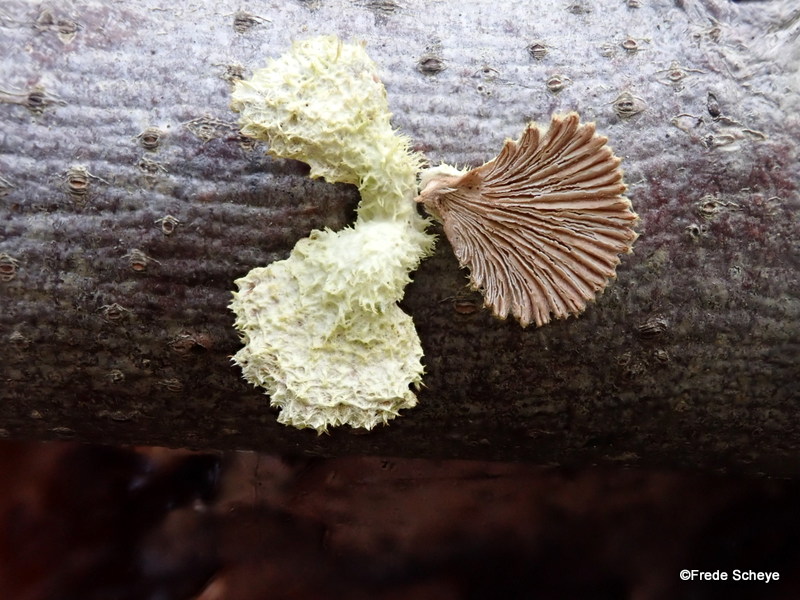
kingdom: Fungi
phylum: Basidiomycota
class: Agaricomycetes
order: Agaricales
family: Schizophyllaceae
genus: Schizophyllum
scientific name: Schizophyllum commune
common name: kløvblad
